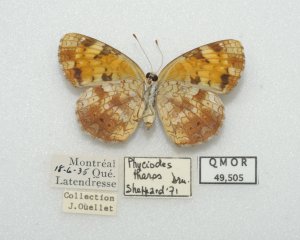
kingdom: Animalia
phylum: Arthropoda
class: Insecta
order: Lepidoptera
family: Nymphalidae
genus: Phyciodes
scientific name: Phyciodes tharos
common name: Northern Crescent
